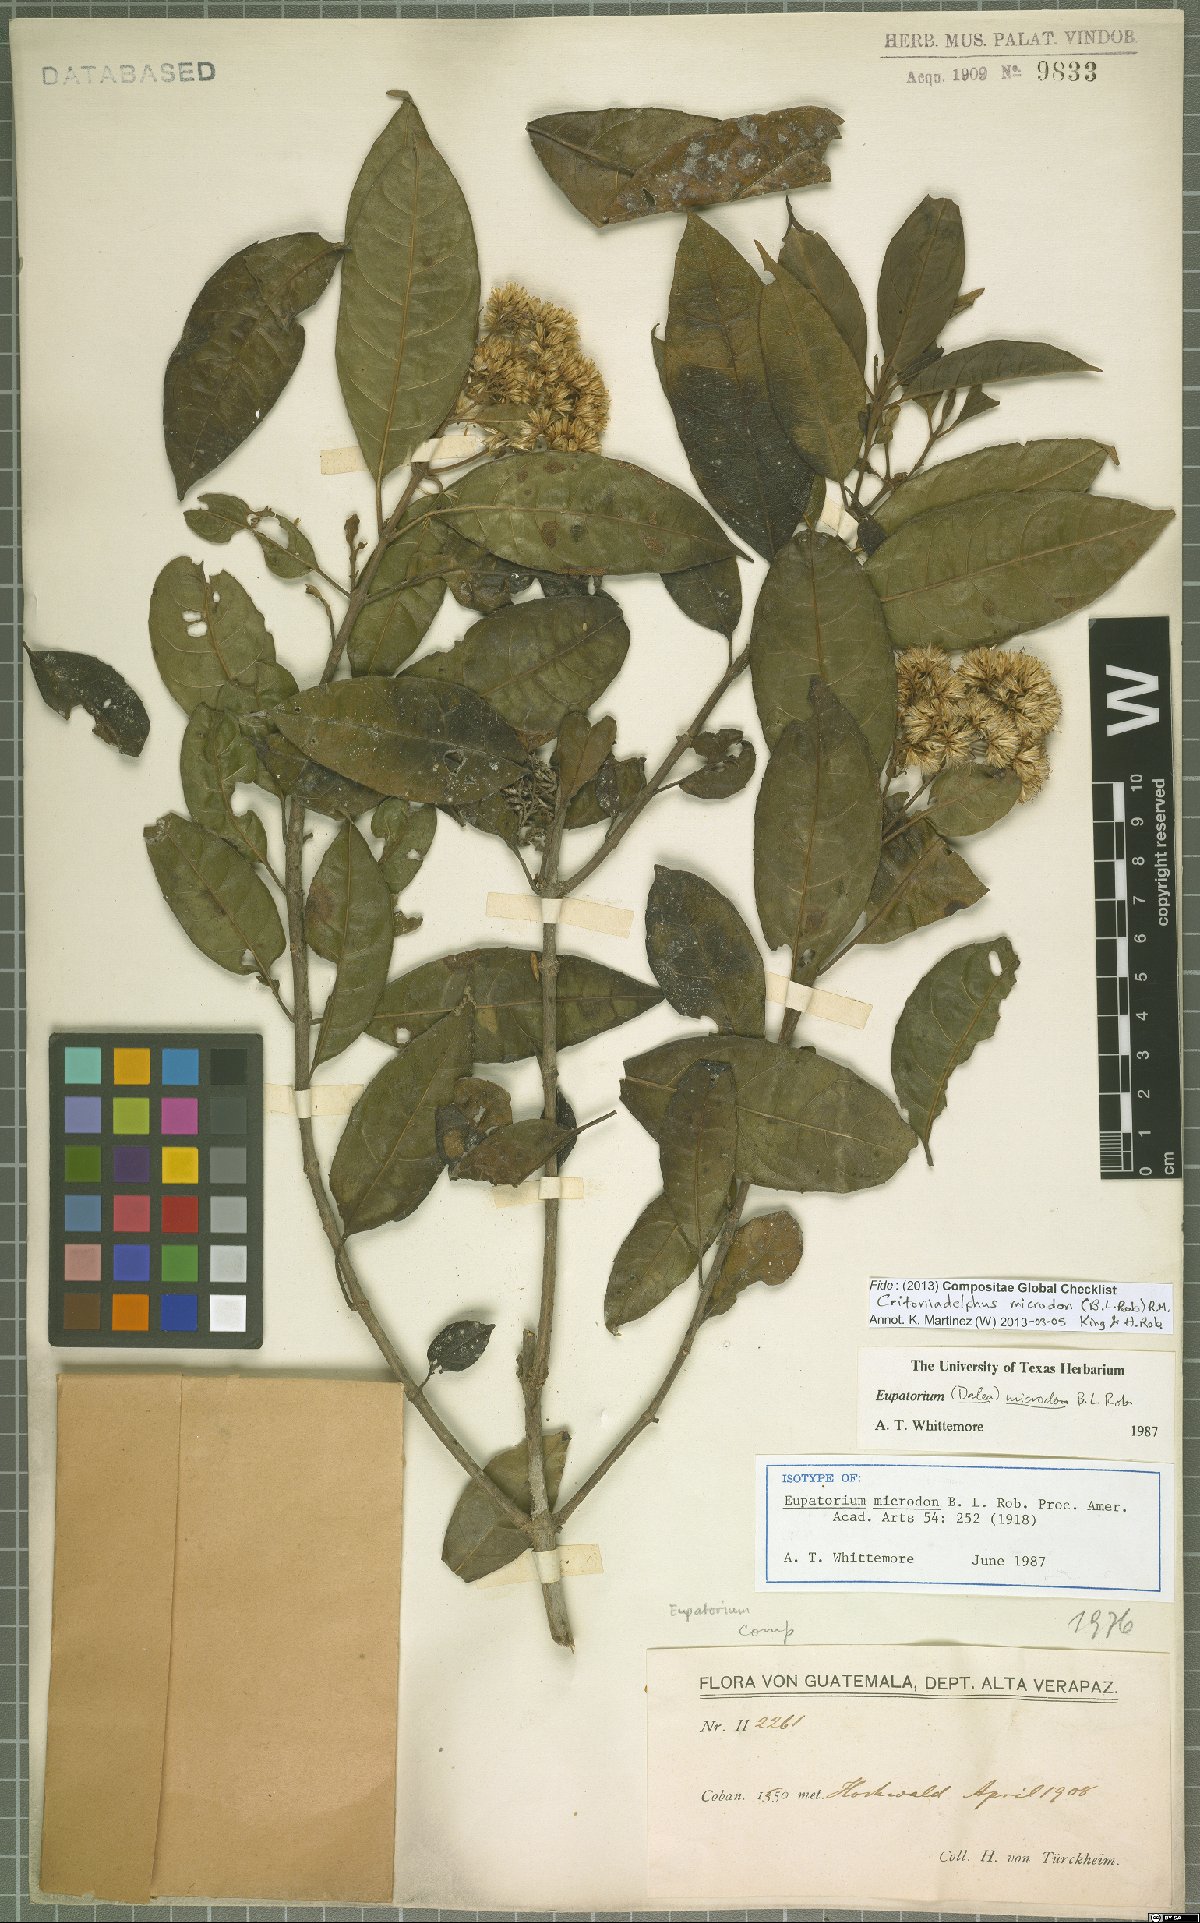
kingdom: Plantae
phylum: Tracheophyta
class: Magnoliopsida
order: Asterales
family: Asteraceae
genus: Critonia
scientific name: Critonia microdon
